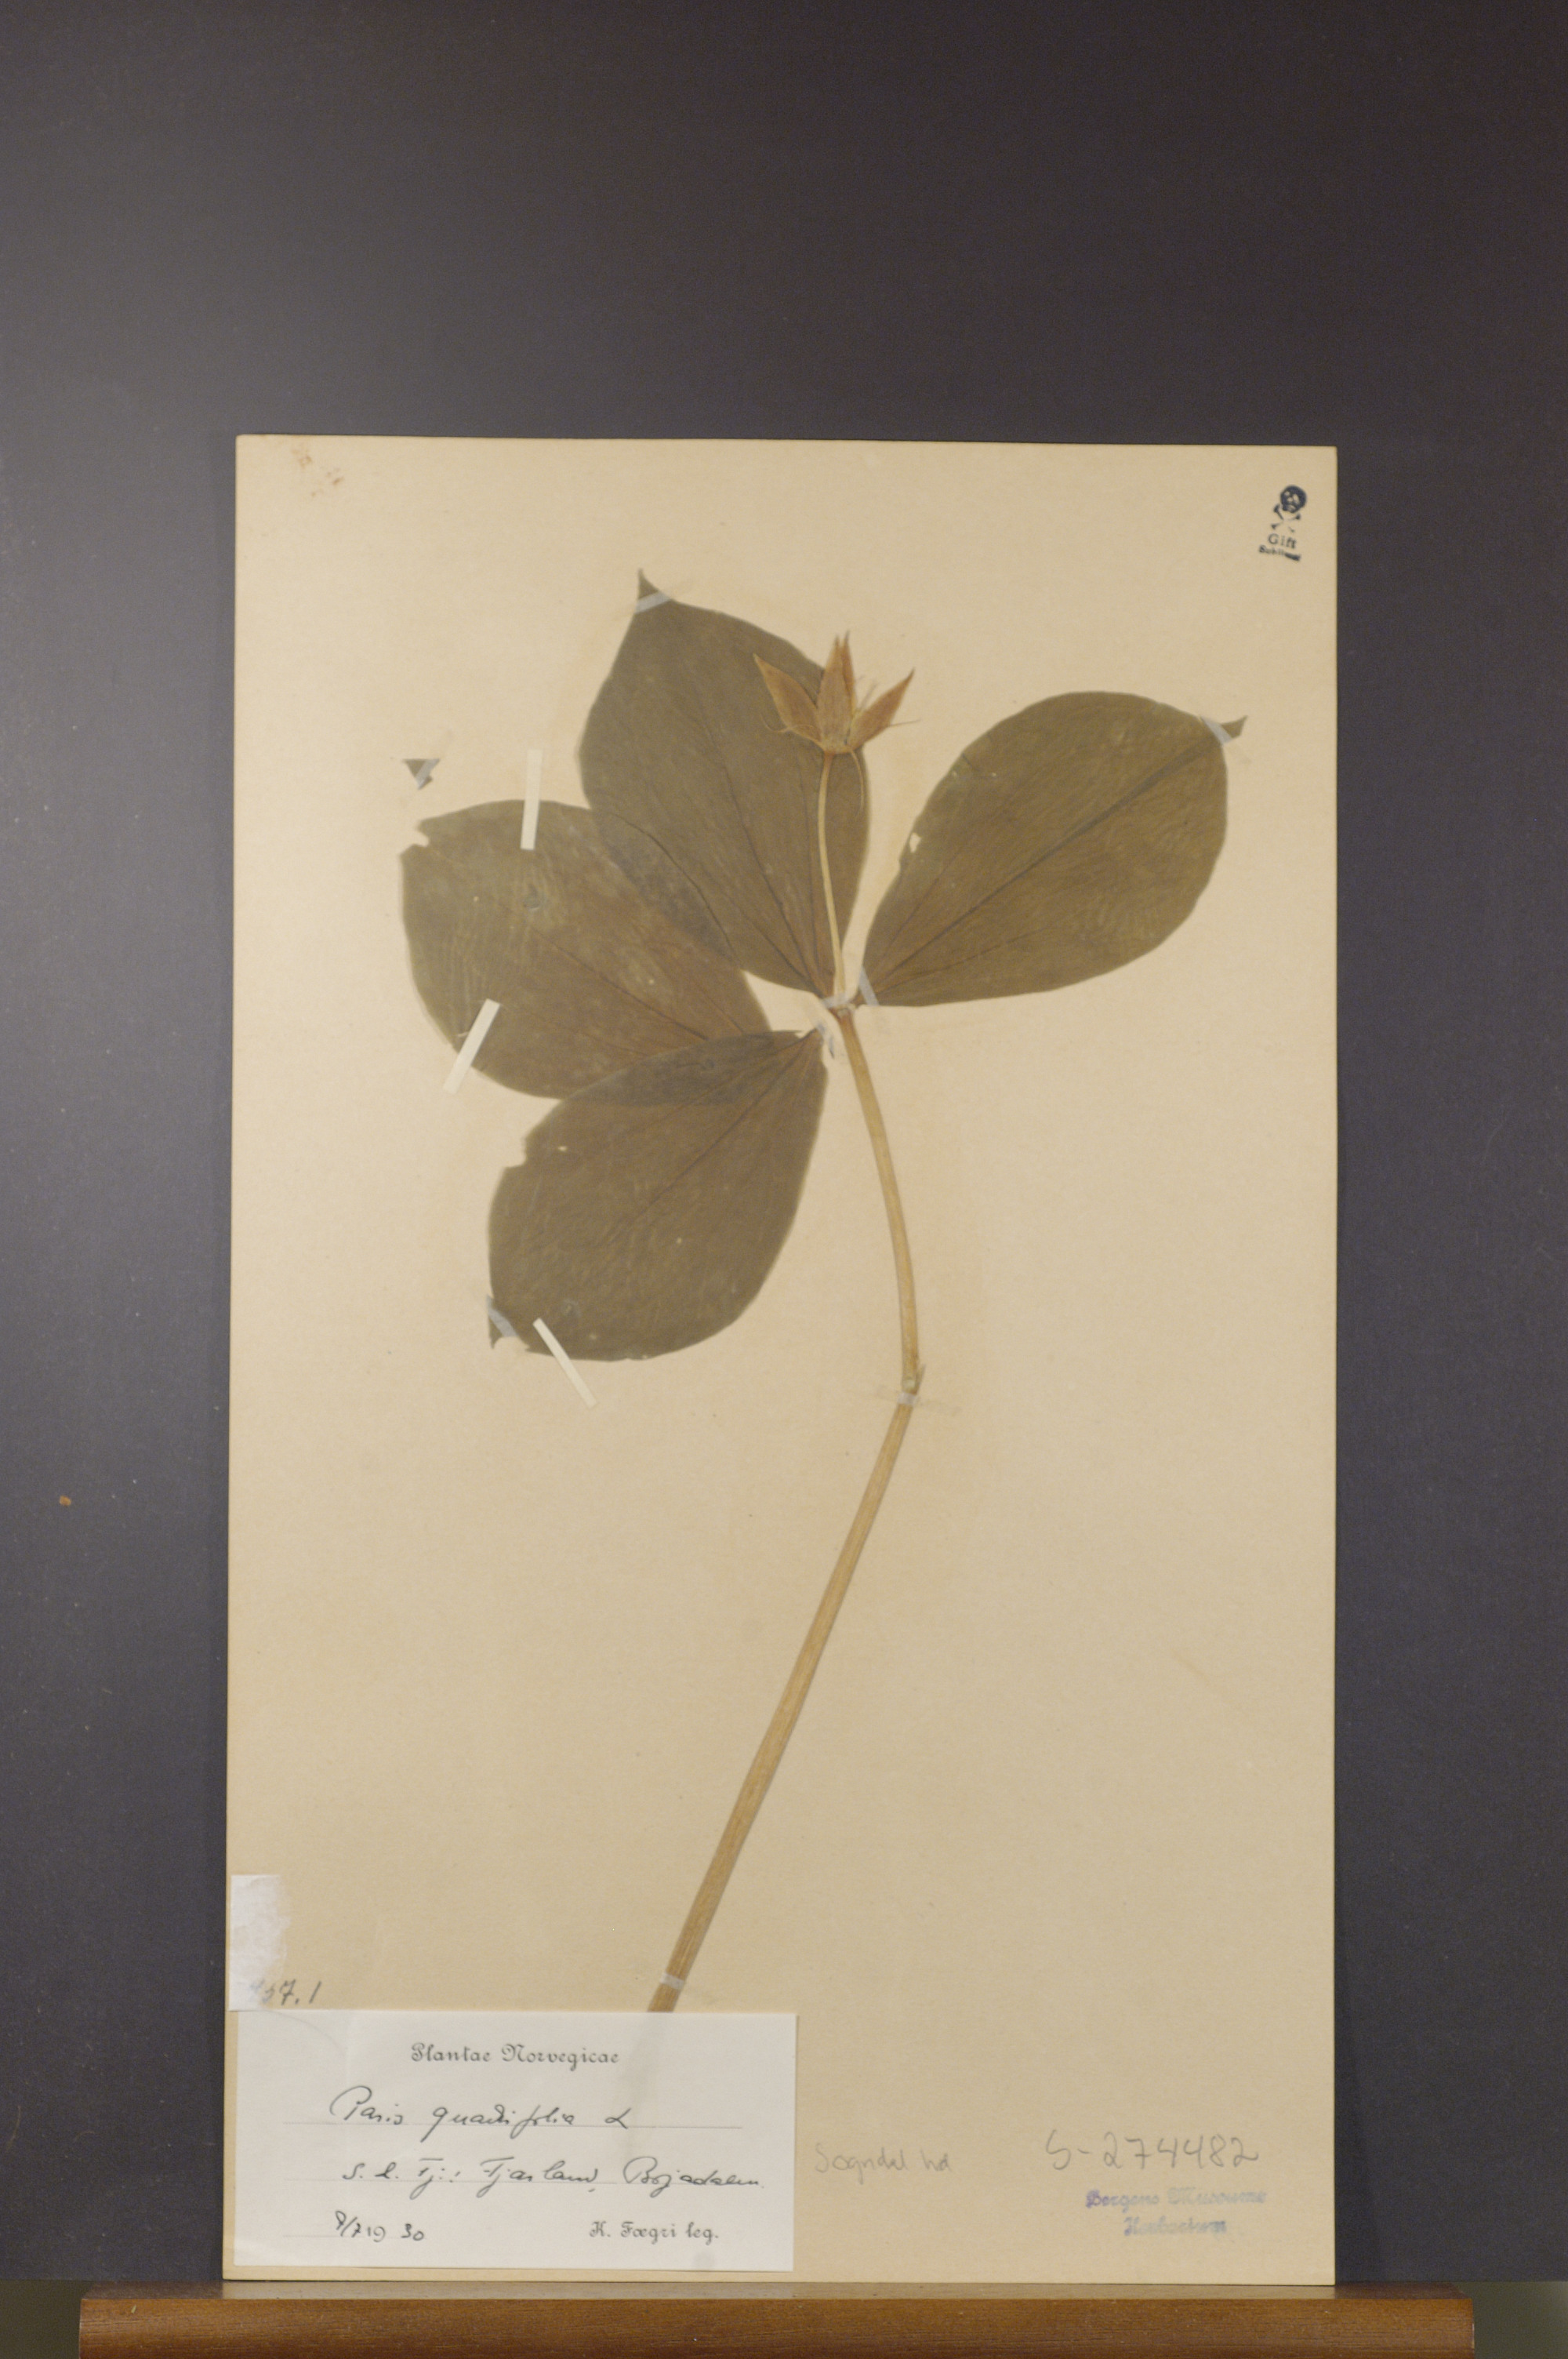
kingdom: Plantae
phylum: Tracheophyta
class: Liliopsida
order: Liliales
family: Melanthiaceae
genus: Paris
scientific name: Paris quadrifolia
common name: Herb-paris
